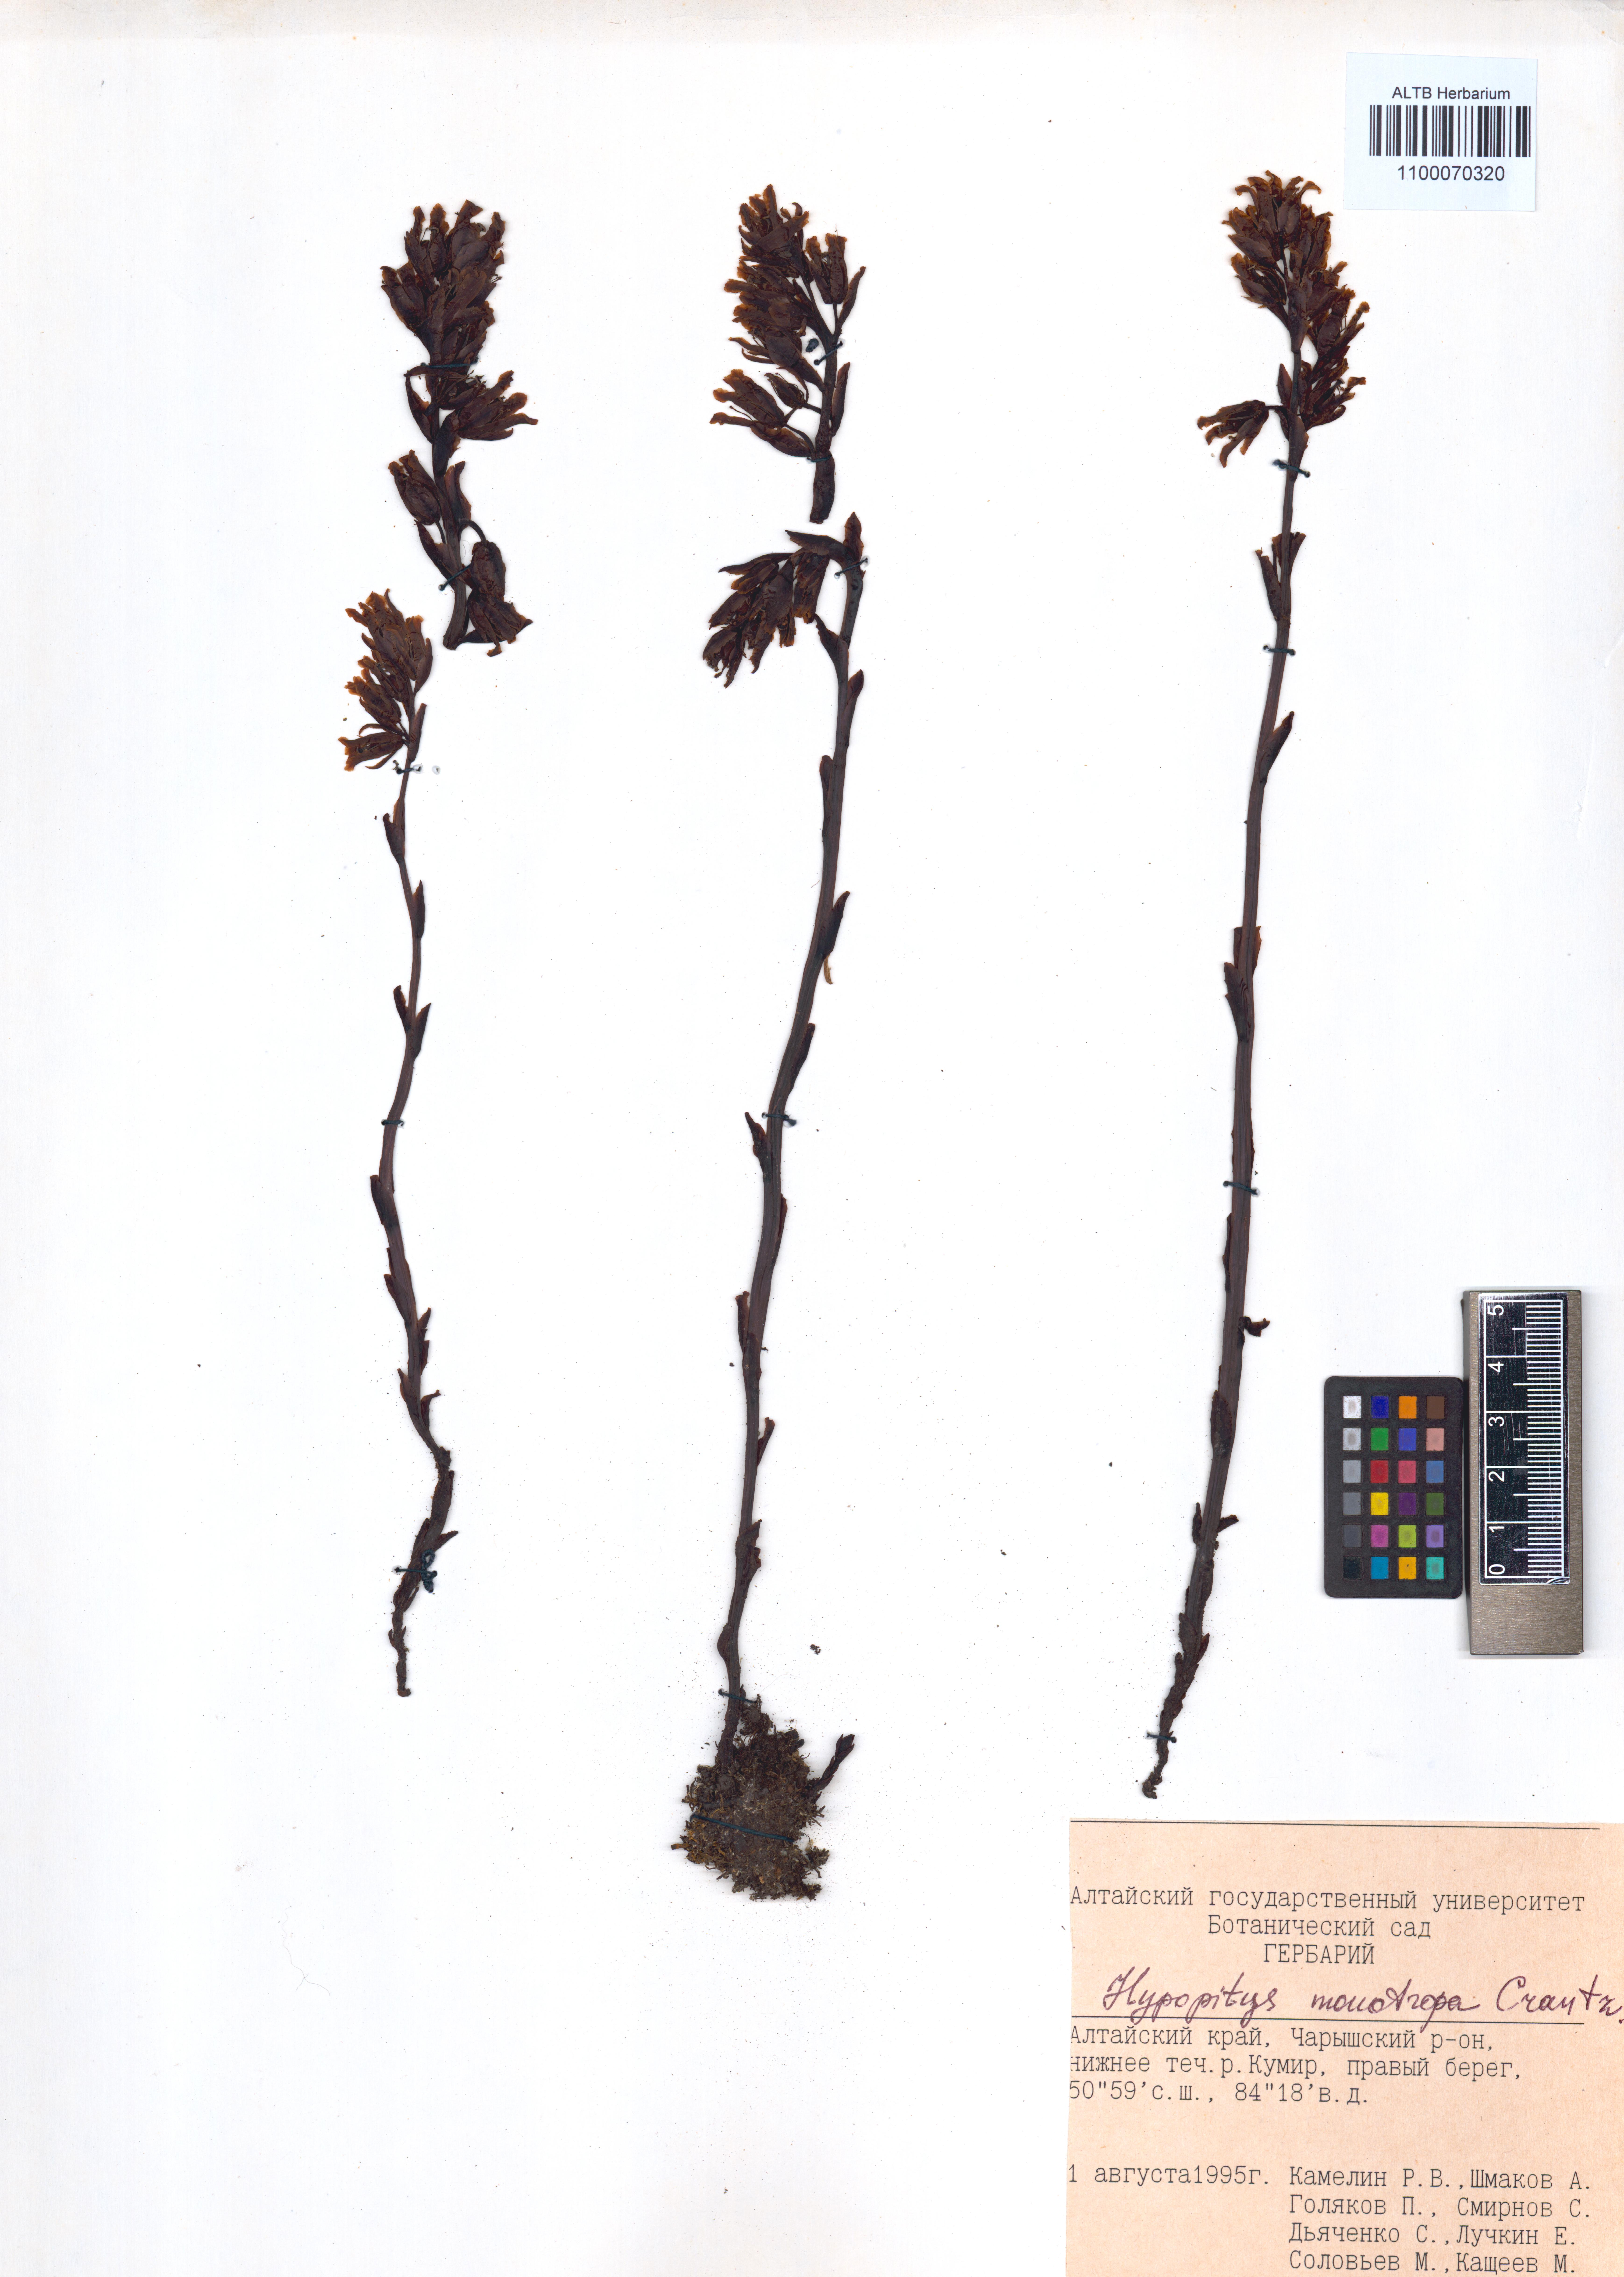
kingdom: Plantae
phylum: Tracheophyta
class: Magnoliopsida
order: Ericales
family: Ericaceae
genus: Hypopitys
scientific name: Hypopitys monotropa
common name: Yellow bird's-nest
